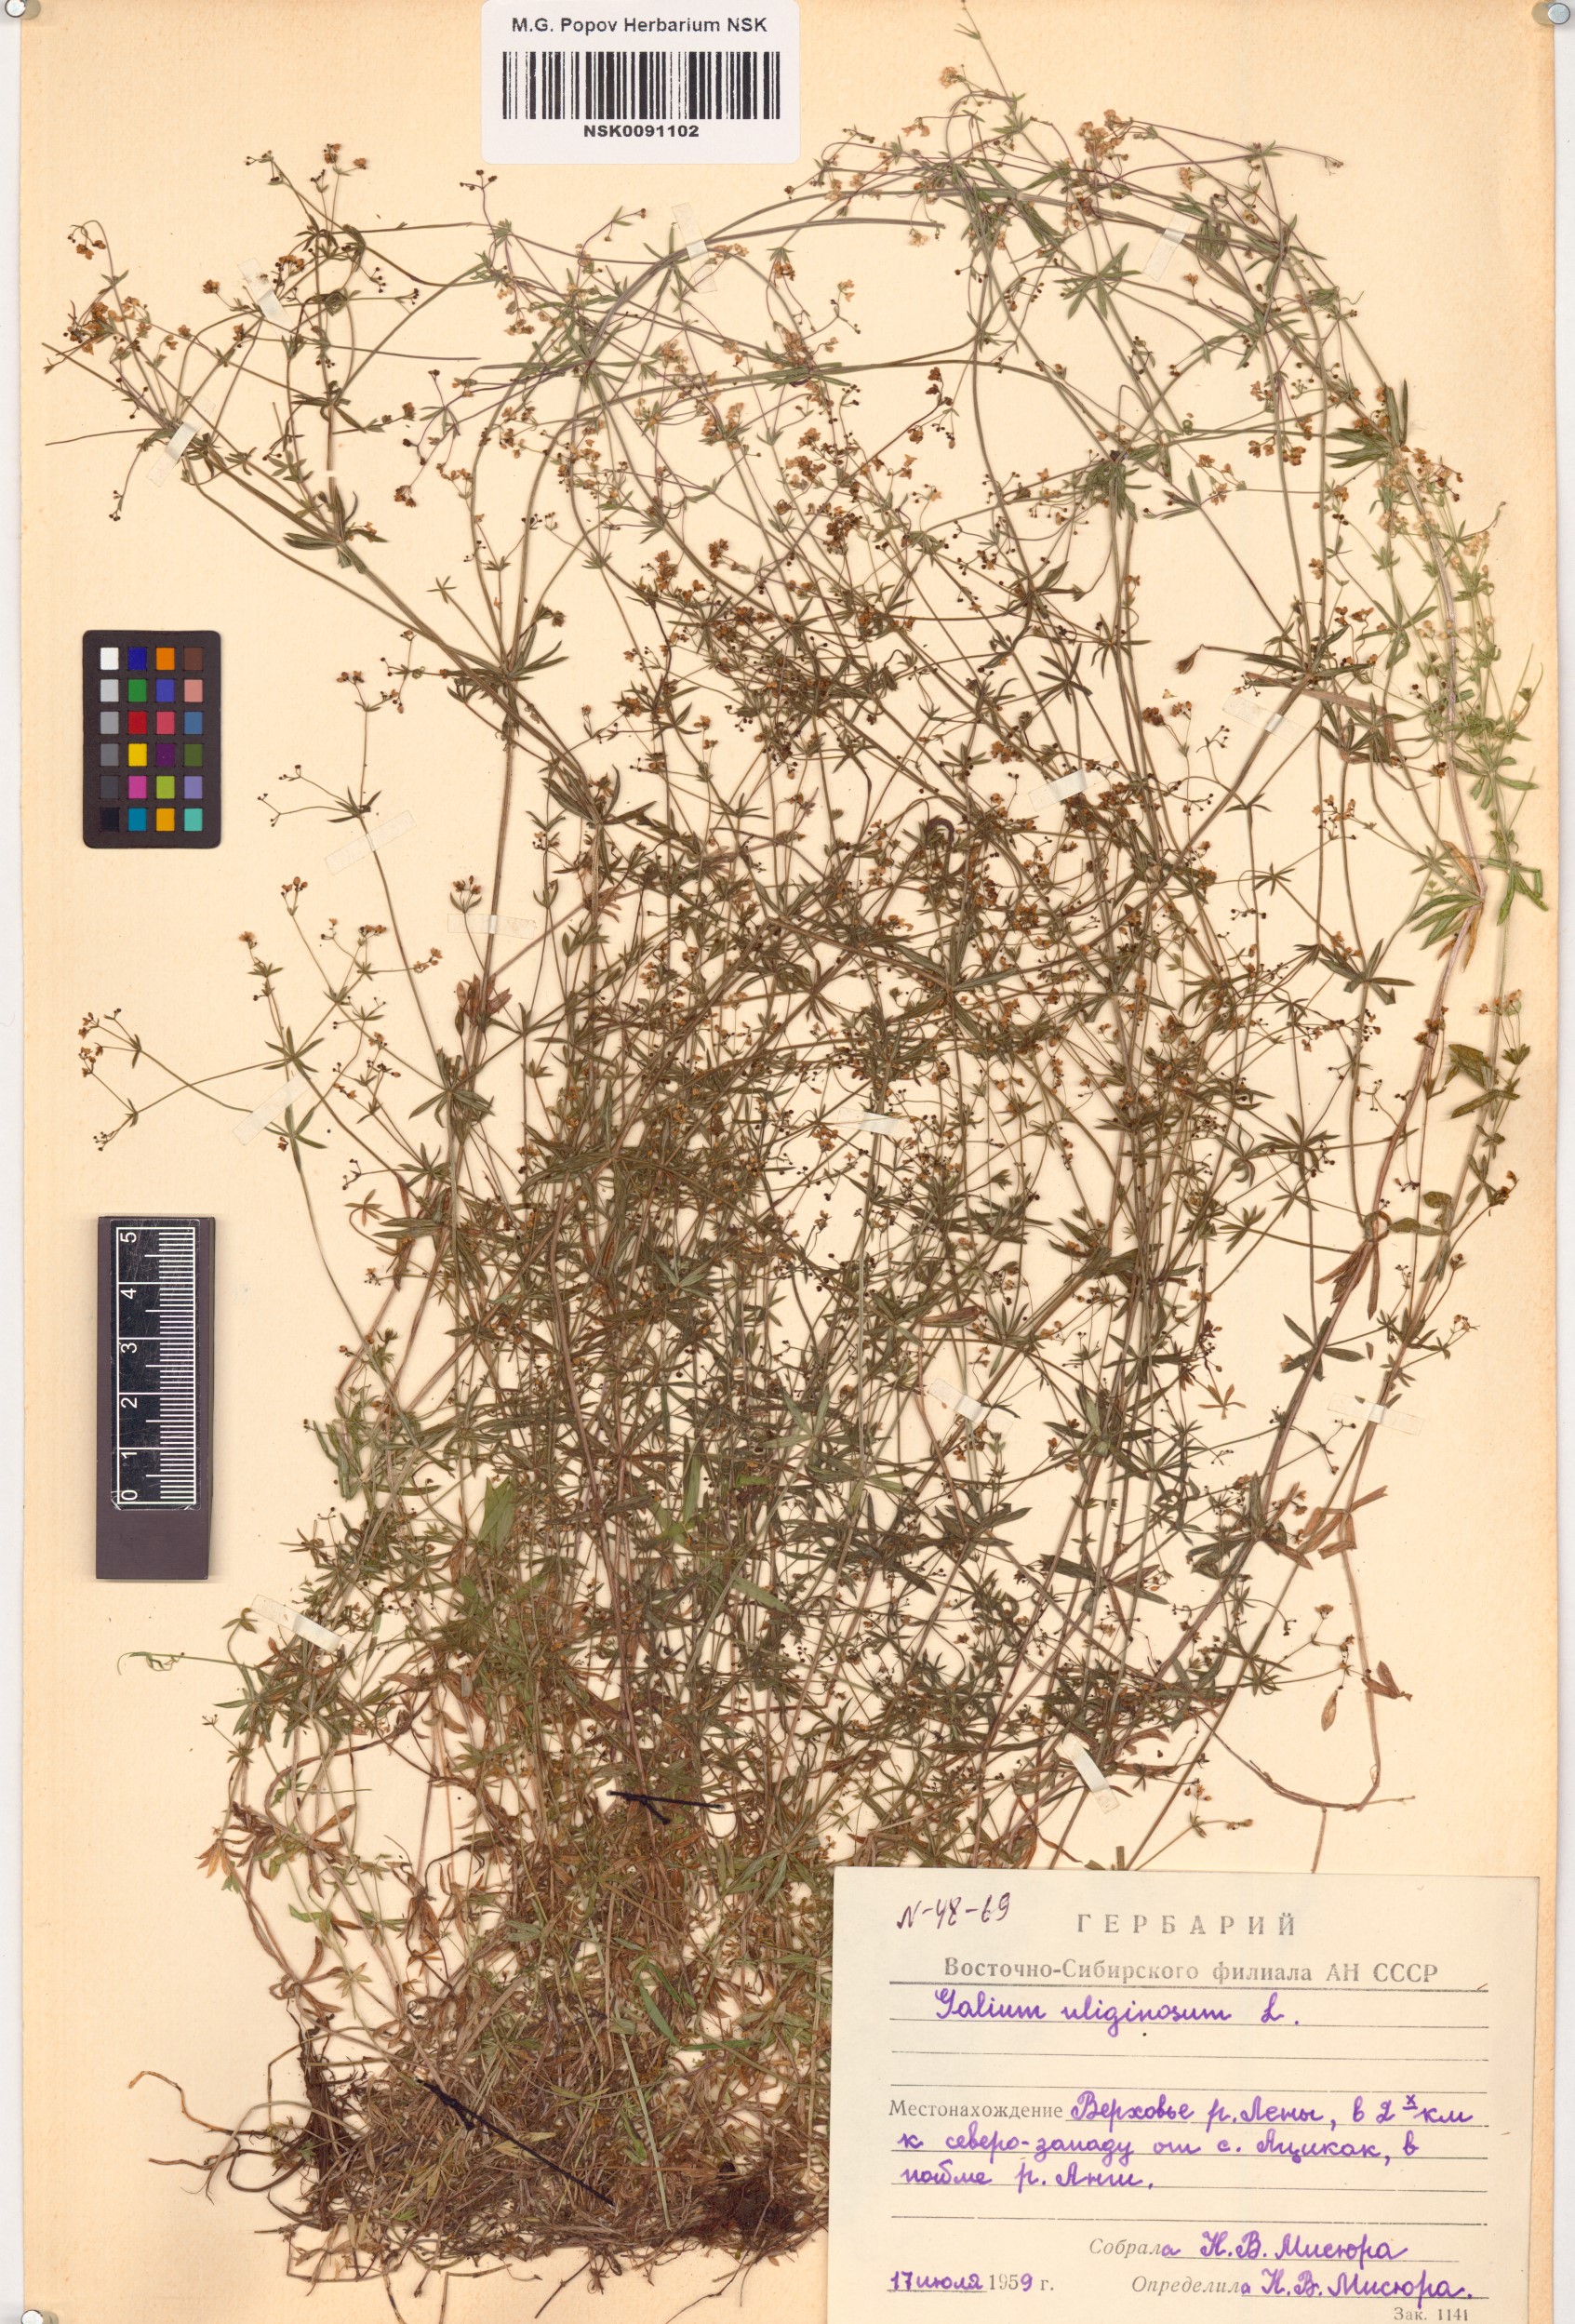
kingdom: Plantae
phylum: Tracheophyta
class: Magnoliopsida
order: Gentianales
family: Rubiaceae
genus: Galium
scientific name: Galium uliginosum
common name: Fen bedstraw
